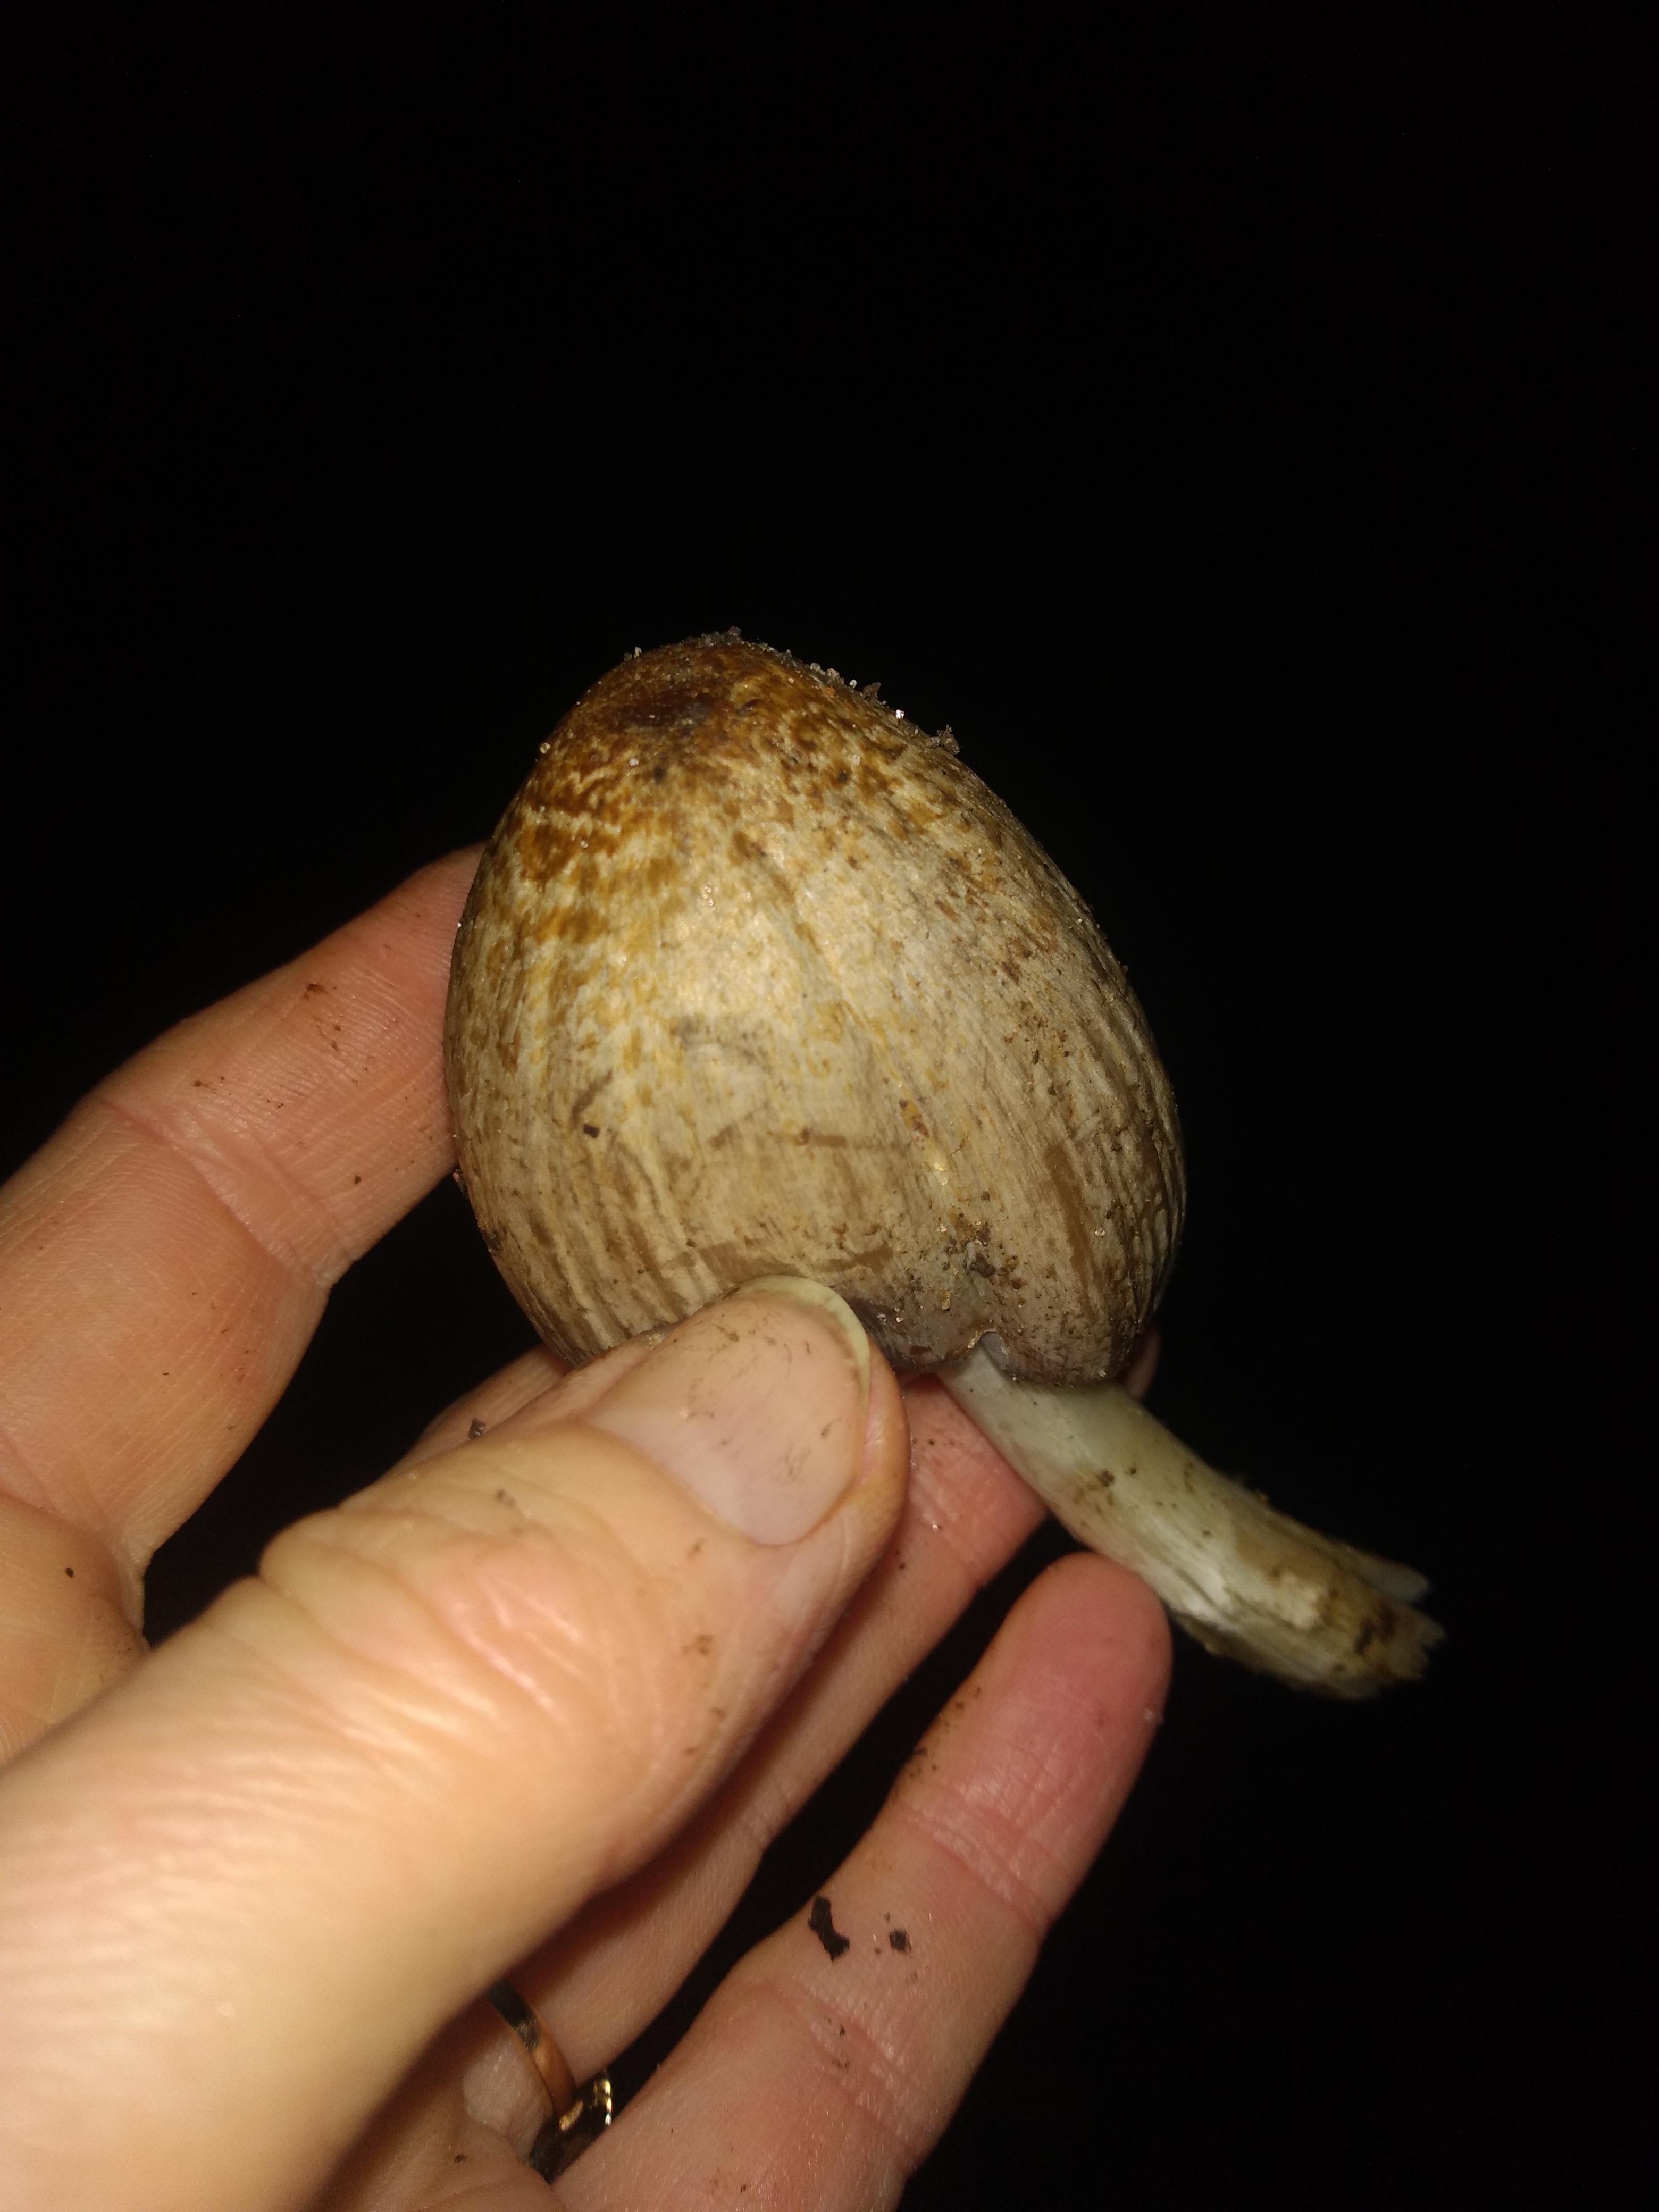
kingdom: Fungi
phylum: Basidiomycota
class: Agaricomycetes
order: Agaricales
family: Psathyrellaceae
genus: Coprinopsis
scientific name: Coprinopsis atramentaria
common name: almindelig blækhat
